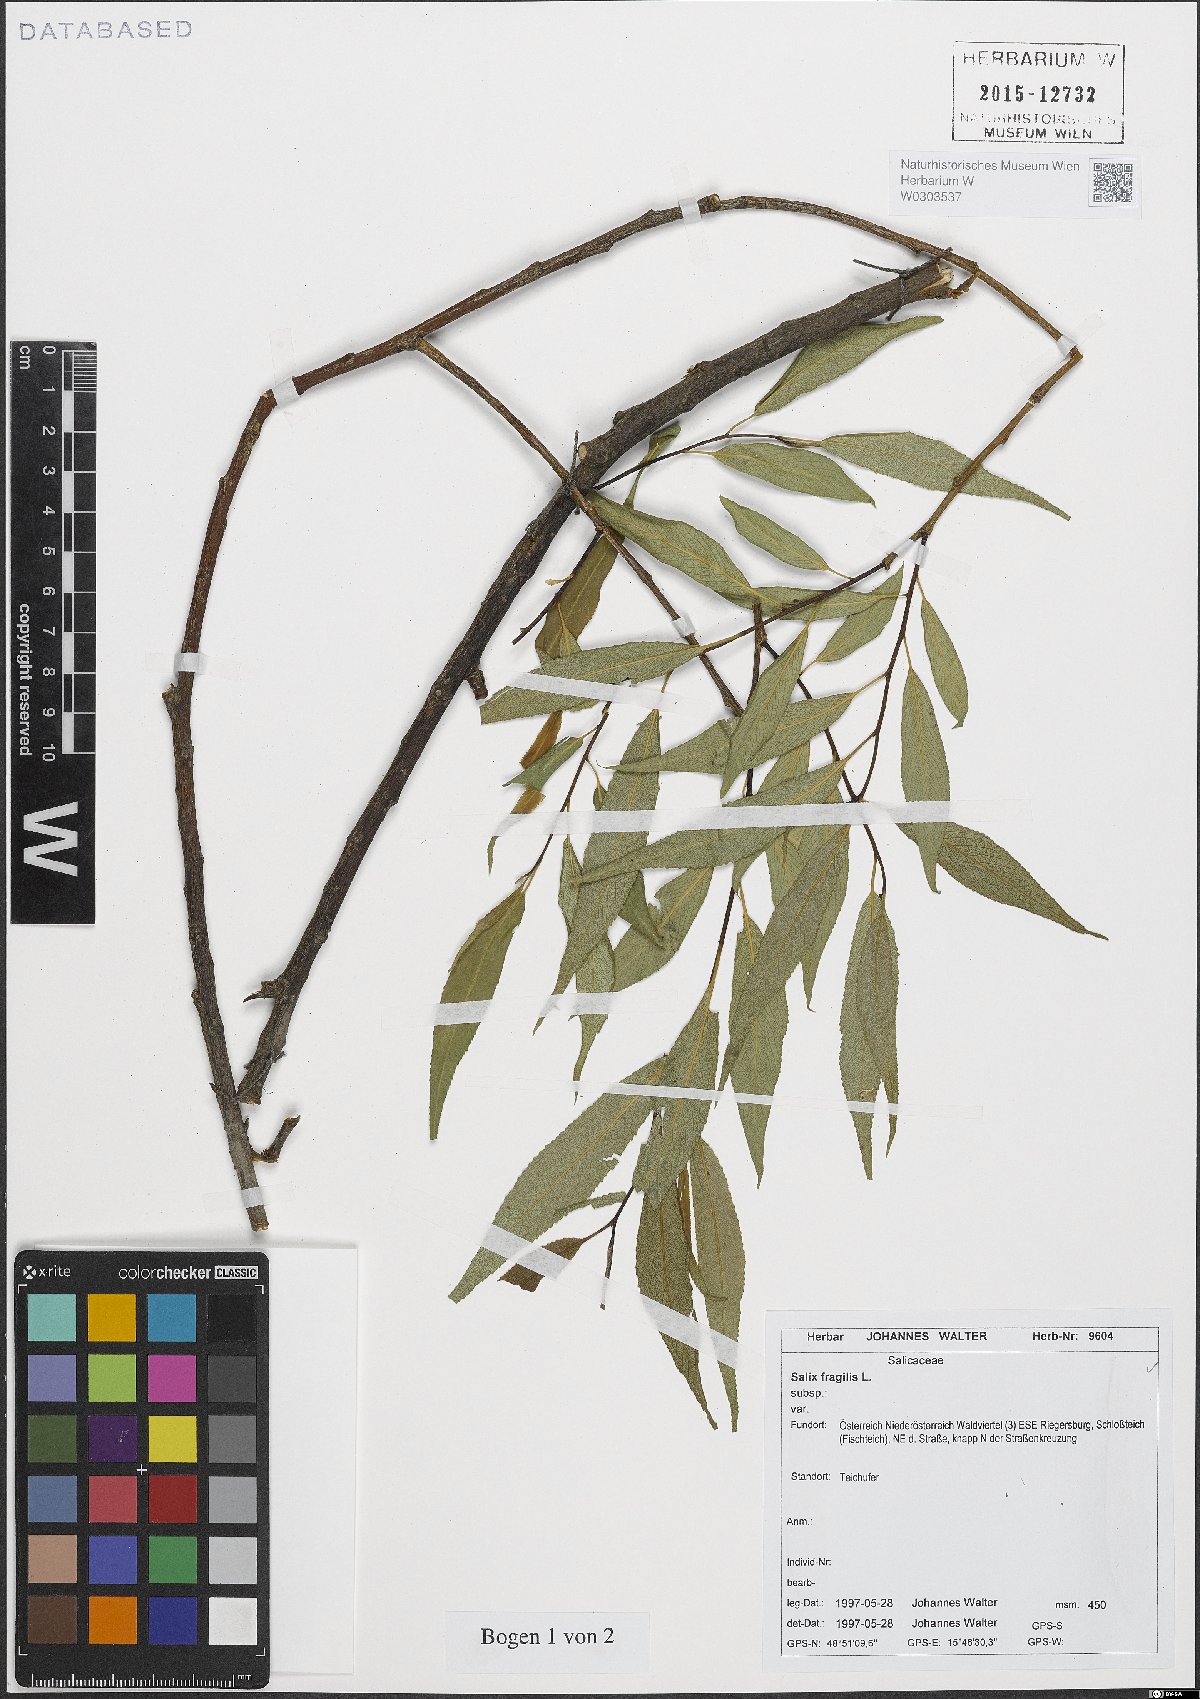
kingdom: Plantae
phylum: Tracheophyta
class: Magnoliopsida
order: Malpighiales
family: Salicaceae
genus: Salix
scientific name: Salix fragilis
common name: Crack willow
